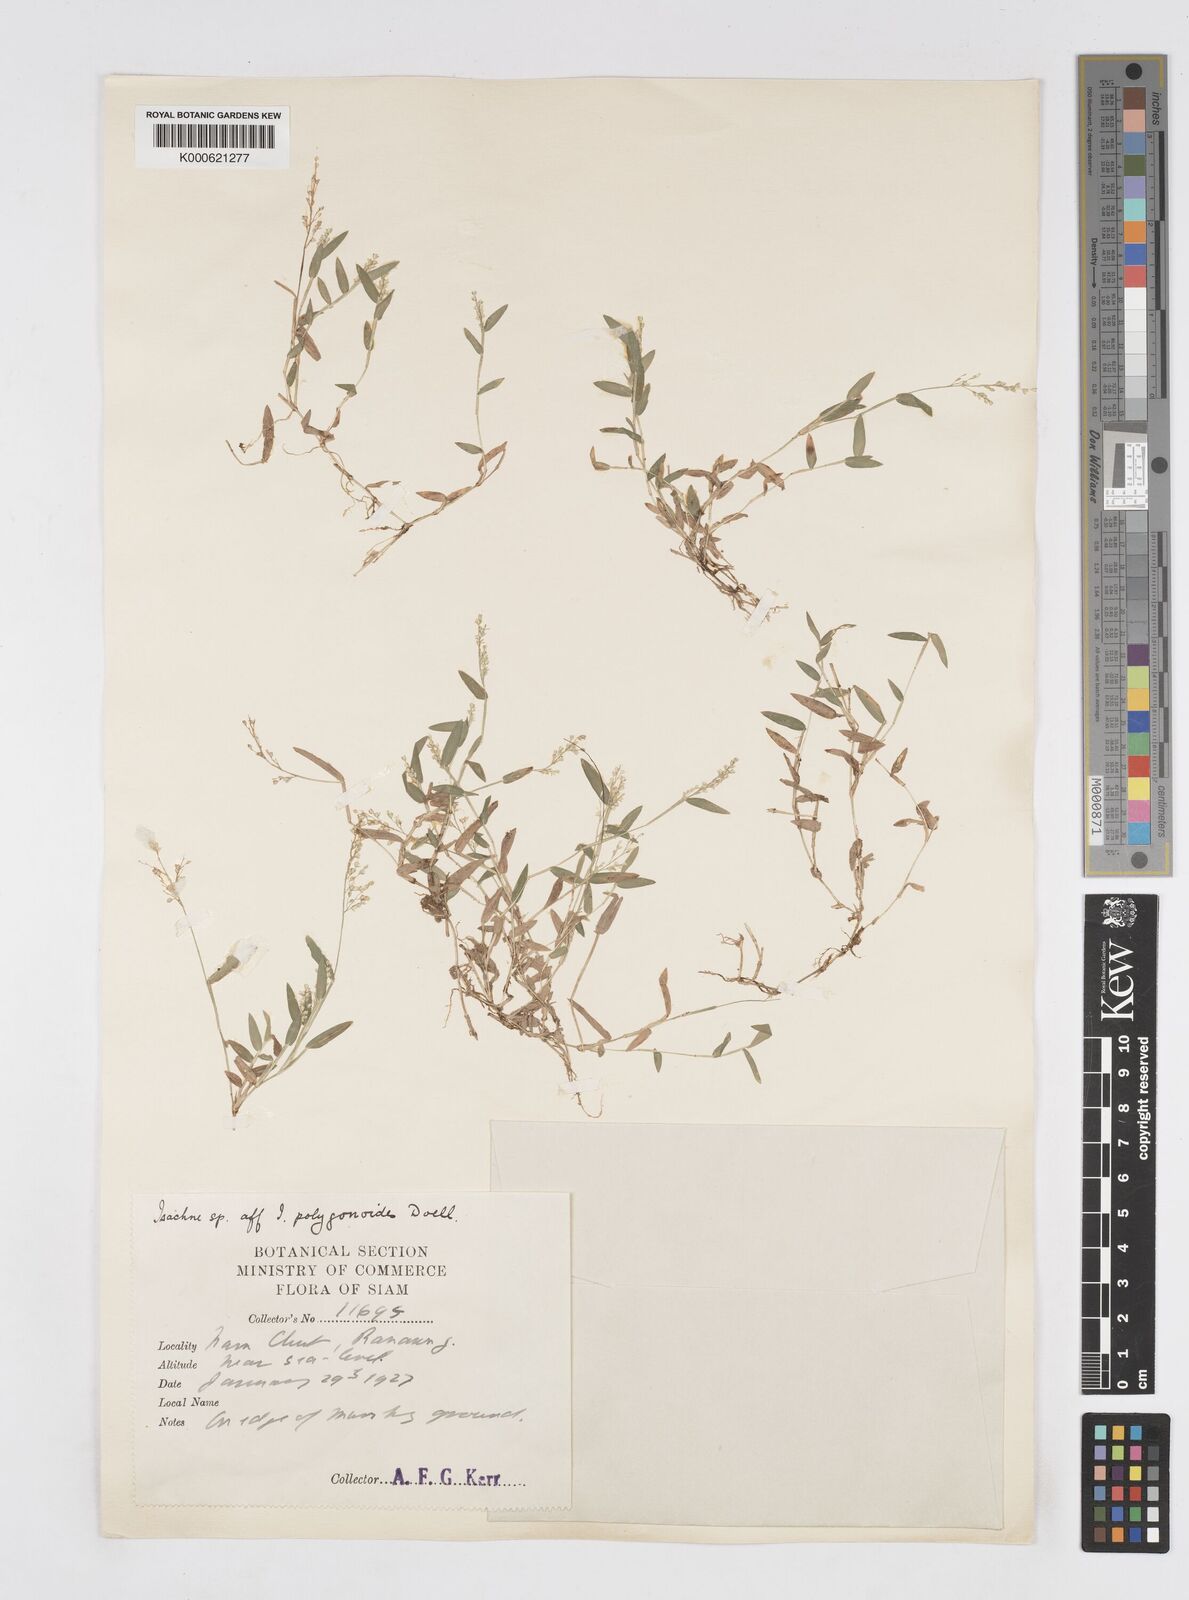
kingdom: Plantae
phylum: Tracheophyta
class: Liliopsida
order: Poales
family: Poaceae
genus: Isachne
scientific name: Isachne
